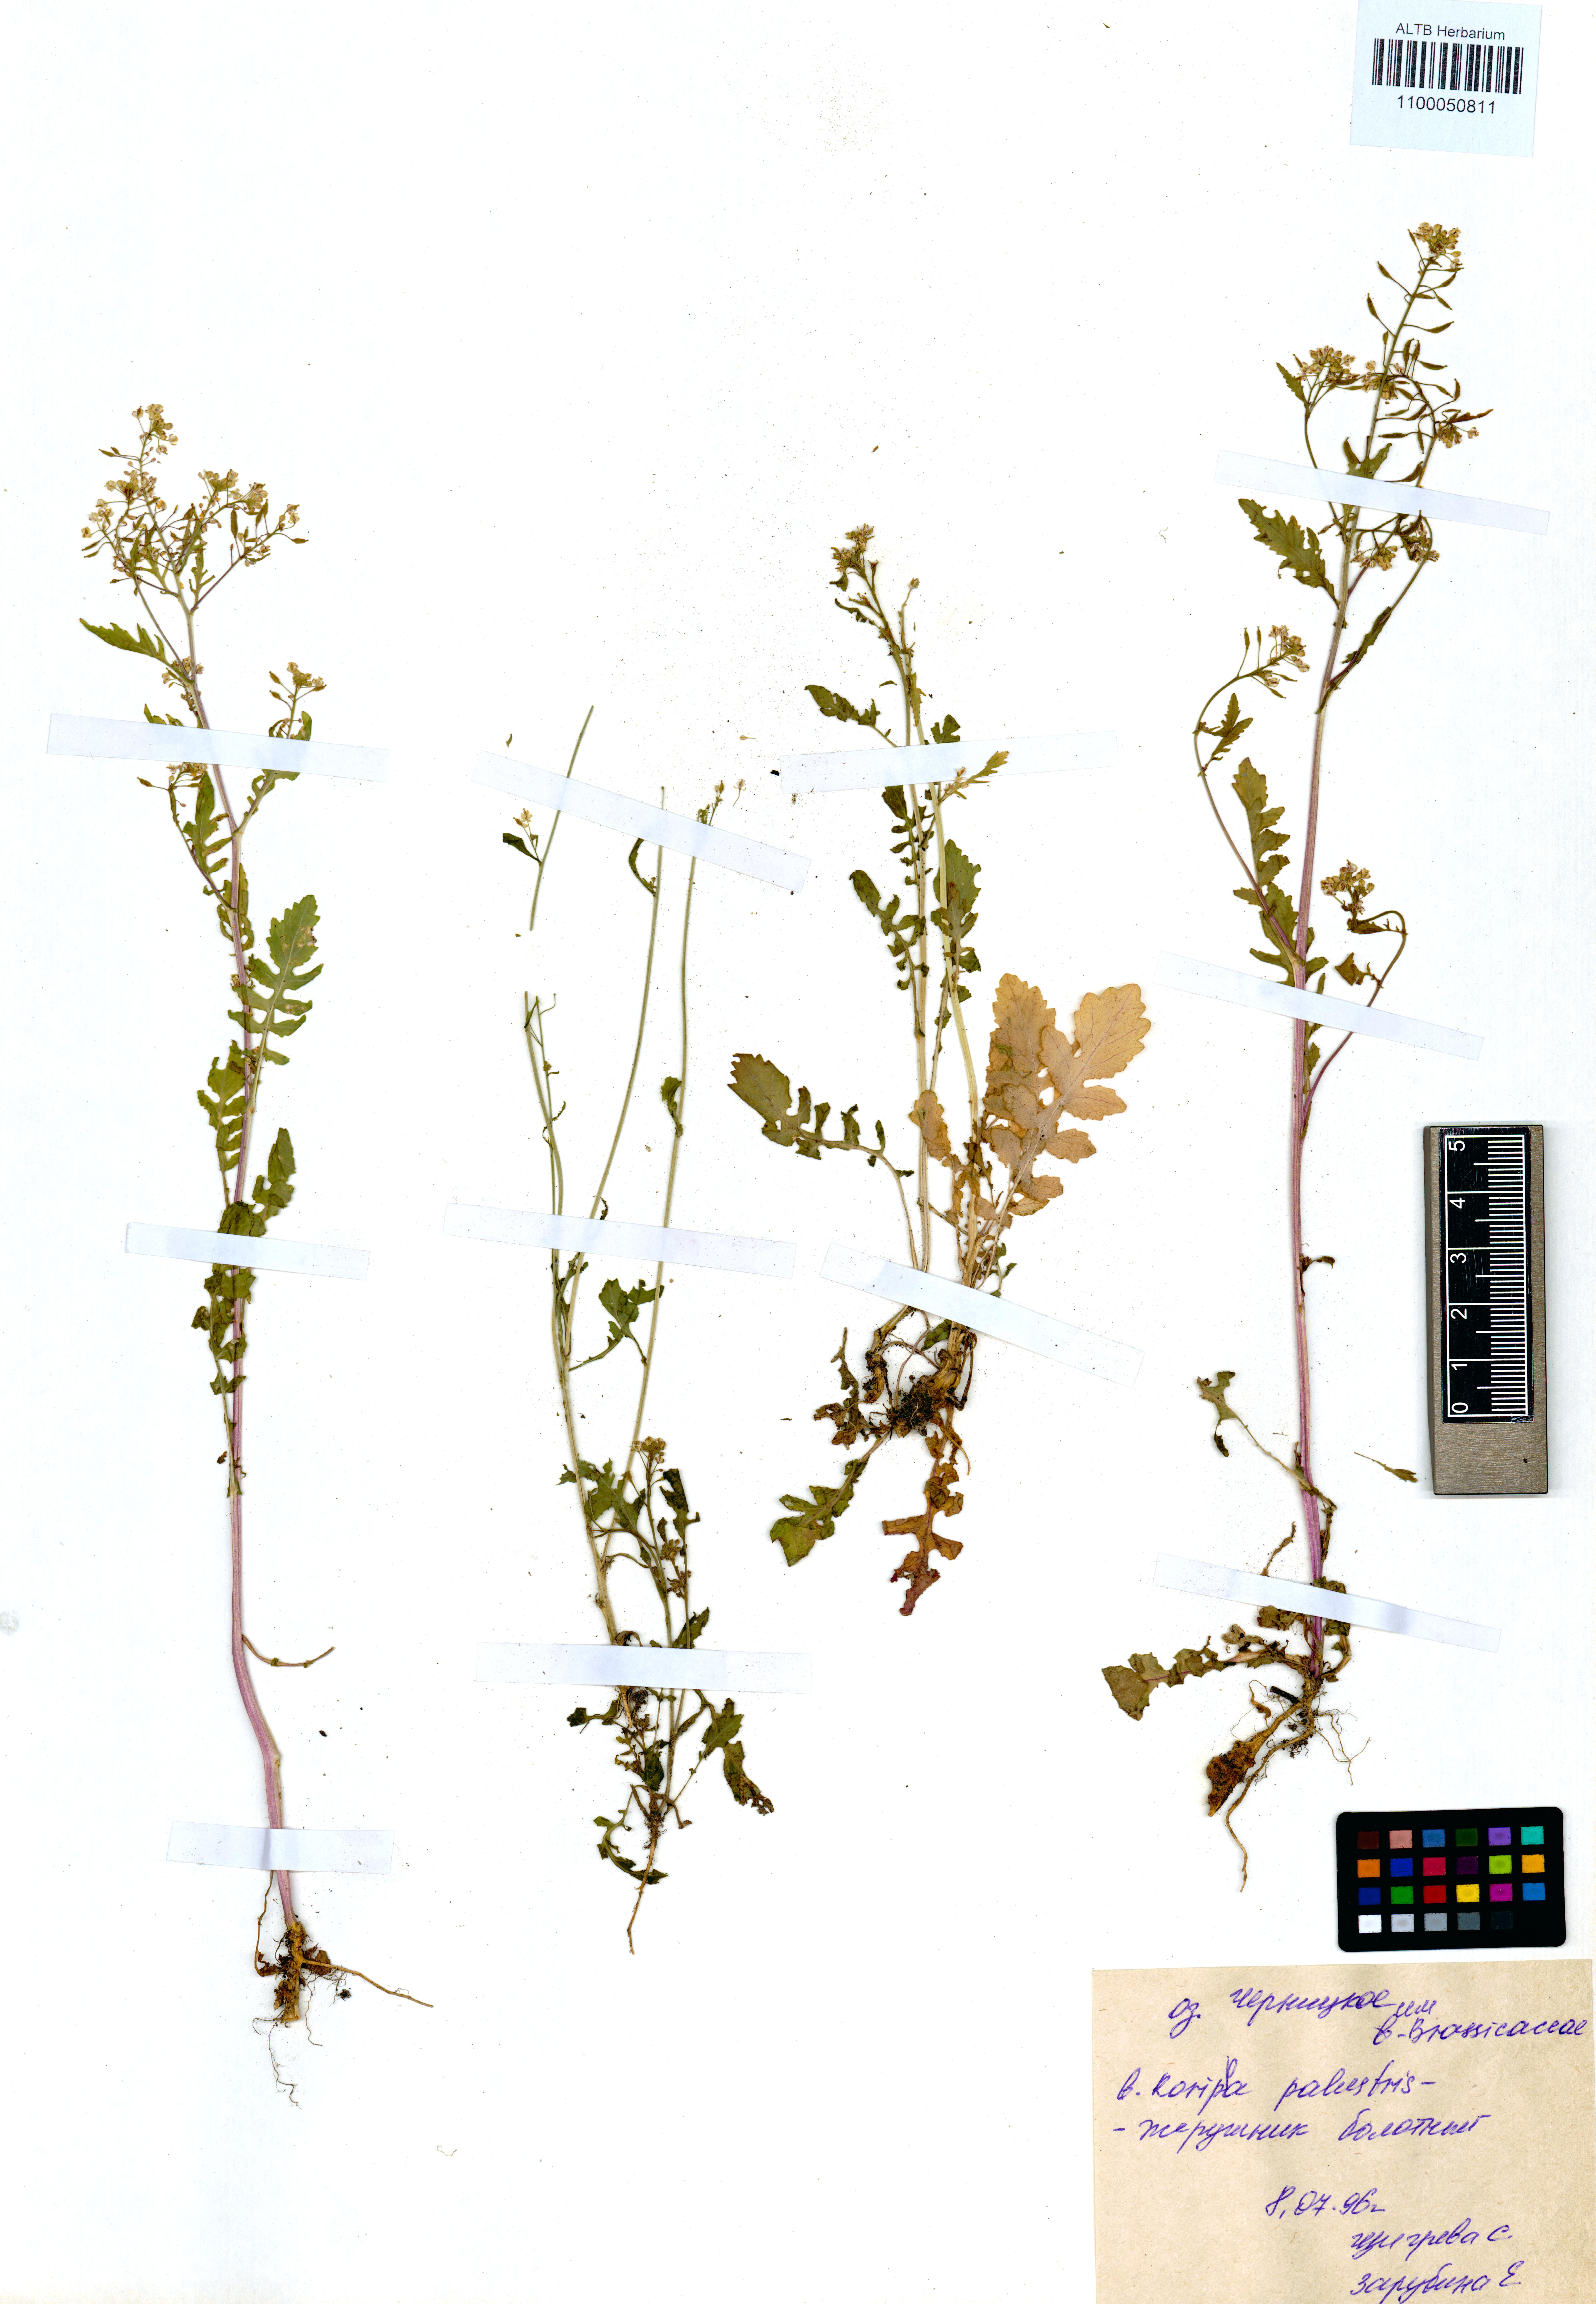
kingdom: Plantae
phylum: Tracheophyta
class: Magnoliopsida
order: Brassicales
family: Brassicaceae
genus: Rorippa
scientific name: Rorippa palustris
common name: Marsh yellow-cress
